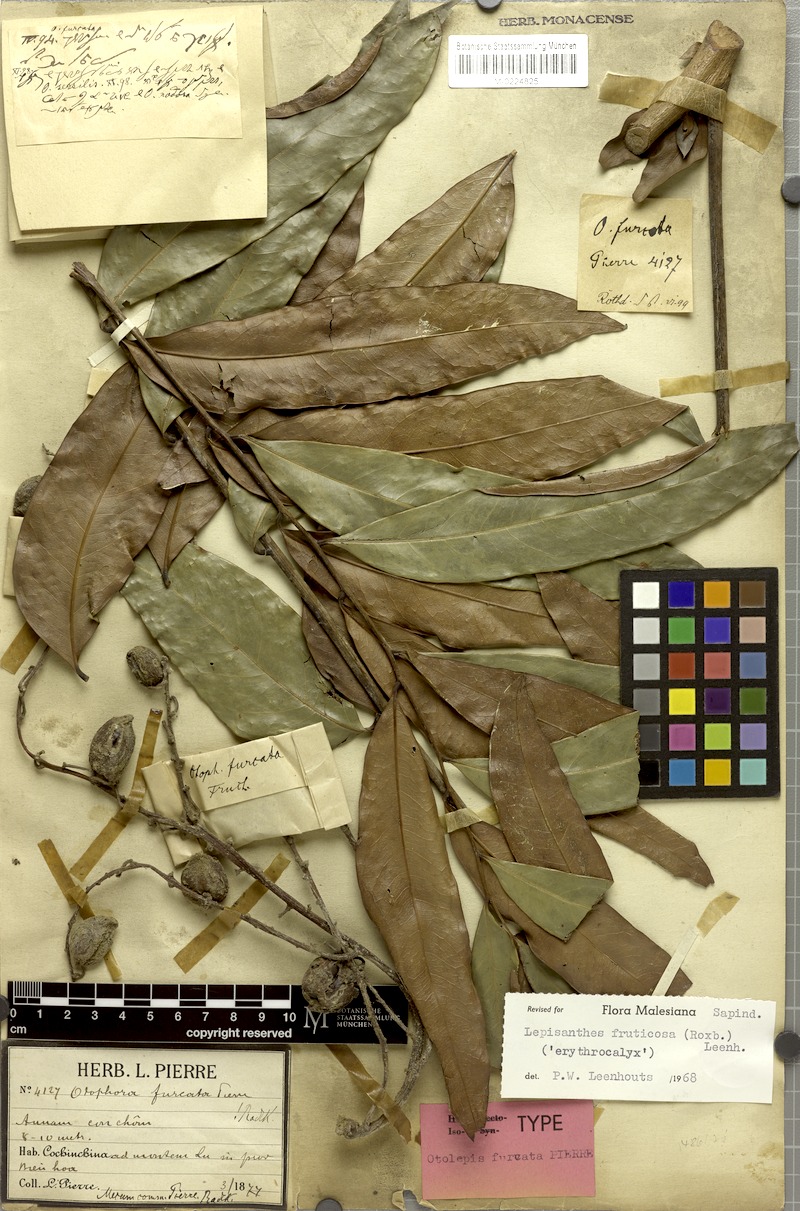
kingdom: Plantae
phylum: Tracheophyta
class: Magnoliopsida
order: Sapindales
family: Sapindaceae
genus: Lepisanthes
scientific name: Lepisanthes fruticosa
